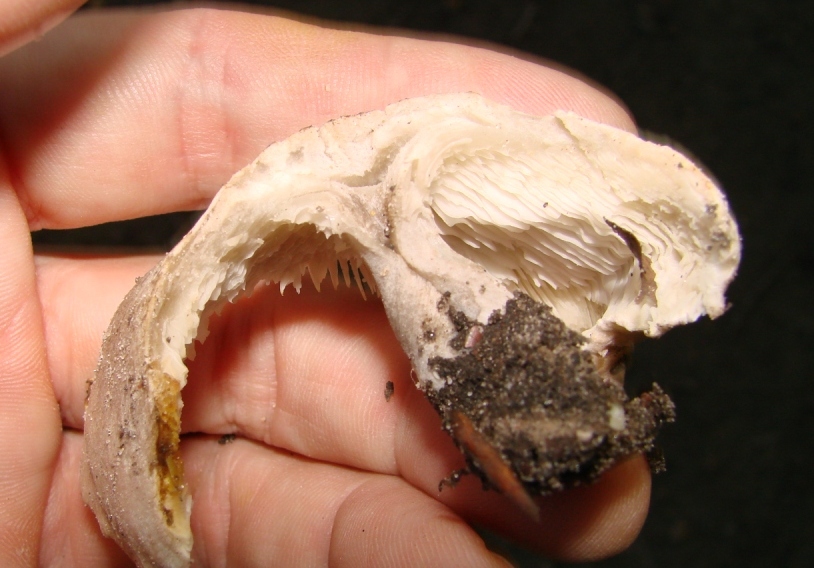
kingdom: Fungi
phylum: Basidiomycota
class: Agaricomycetes
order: Agaricales
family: Tricholomataceae
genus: Tricholoma
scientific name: Tricholoma scalpturatum
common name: gulplettet ridderhat
